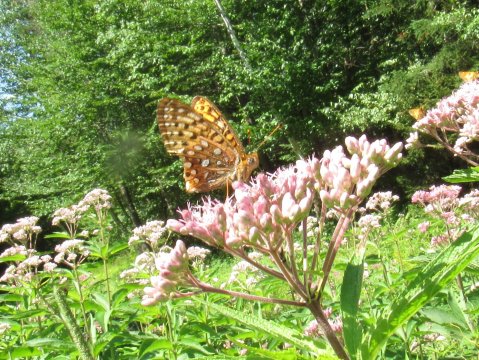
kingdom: Animalia
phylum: Arthropoda
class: Insecta
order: Lepidoptera
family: Nymphalidae
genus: Speyeria
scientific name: Speyeria atlantis
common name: Atlantis Fritillary
